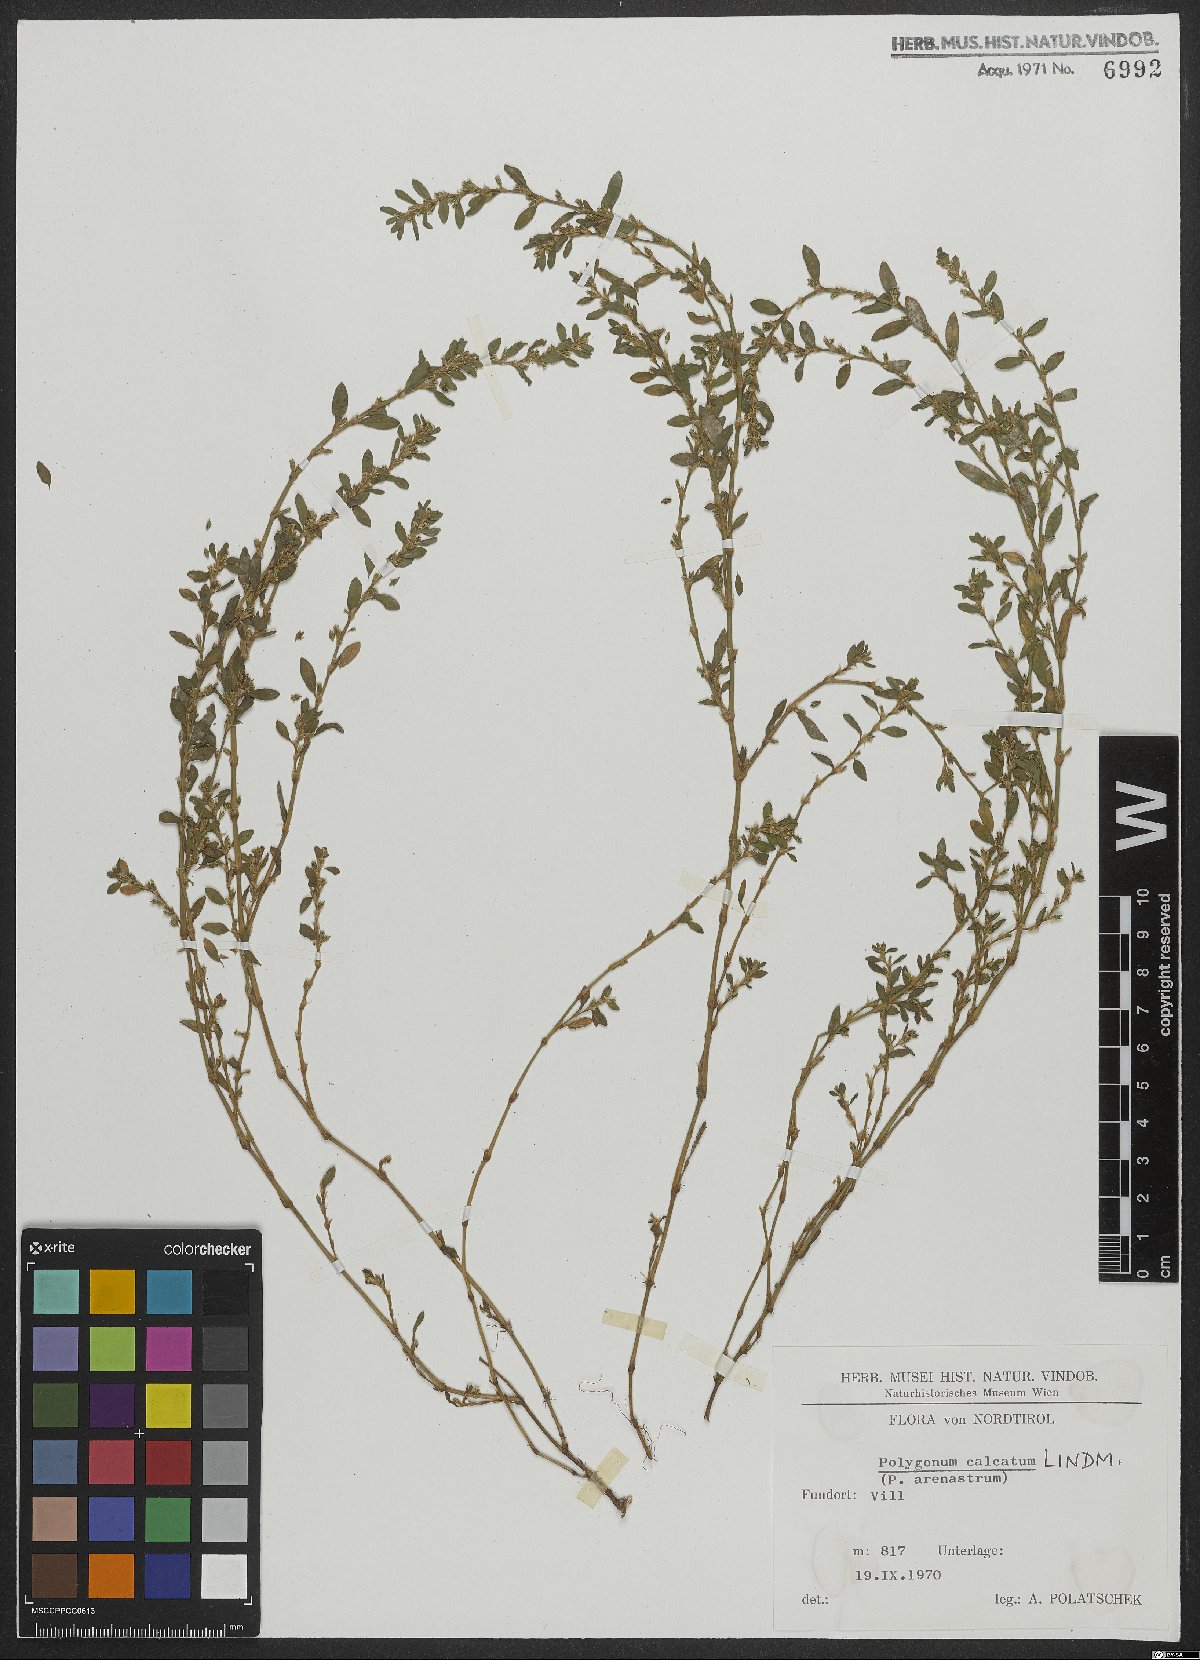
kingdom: Plantae
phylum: Tracheophyta
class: Magnoliopsida
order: Caryophyllales
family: Polygonaceae
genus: Polygonum
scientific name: Polygonum arenastrum
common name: Equal-leaved knotgrass
